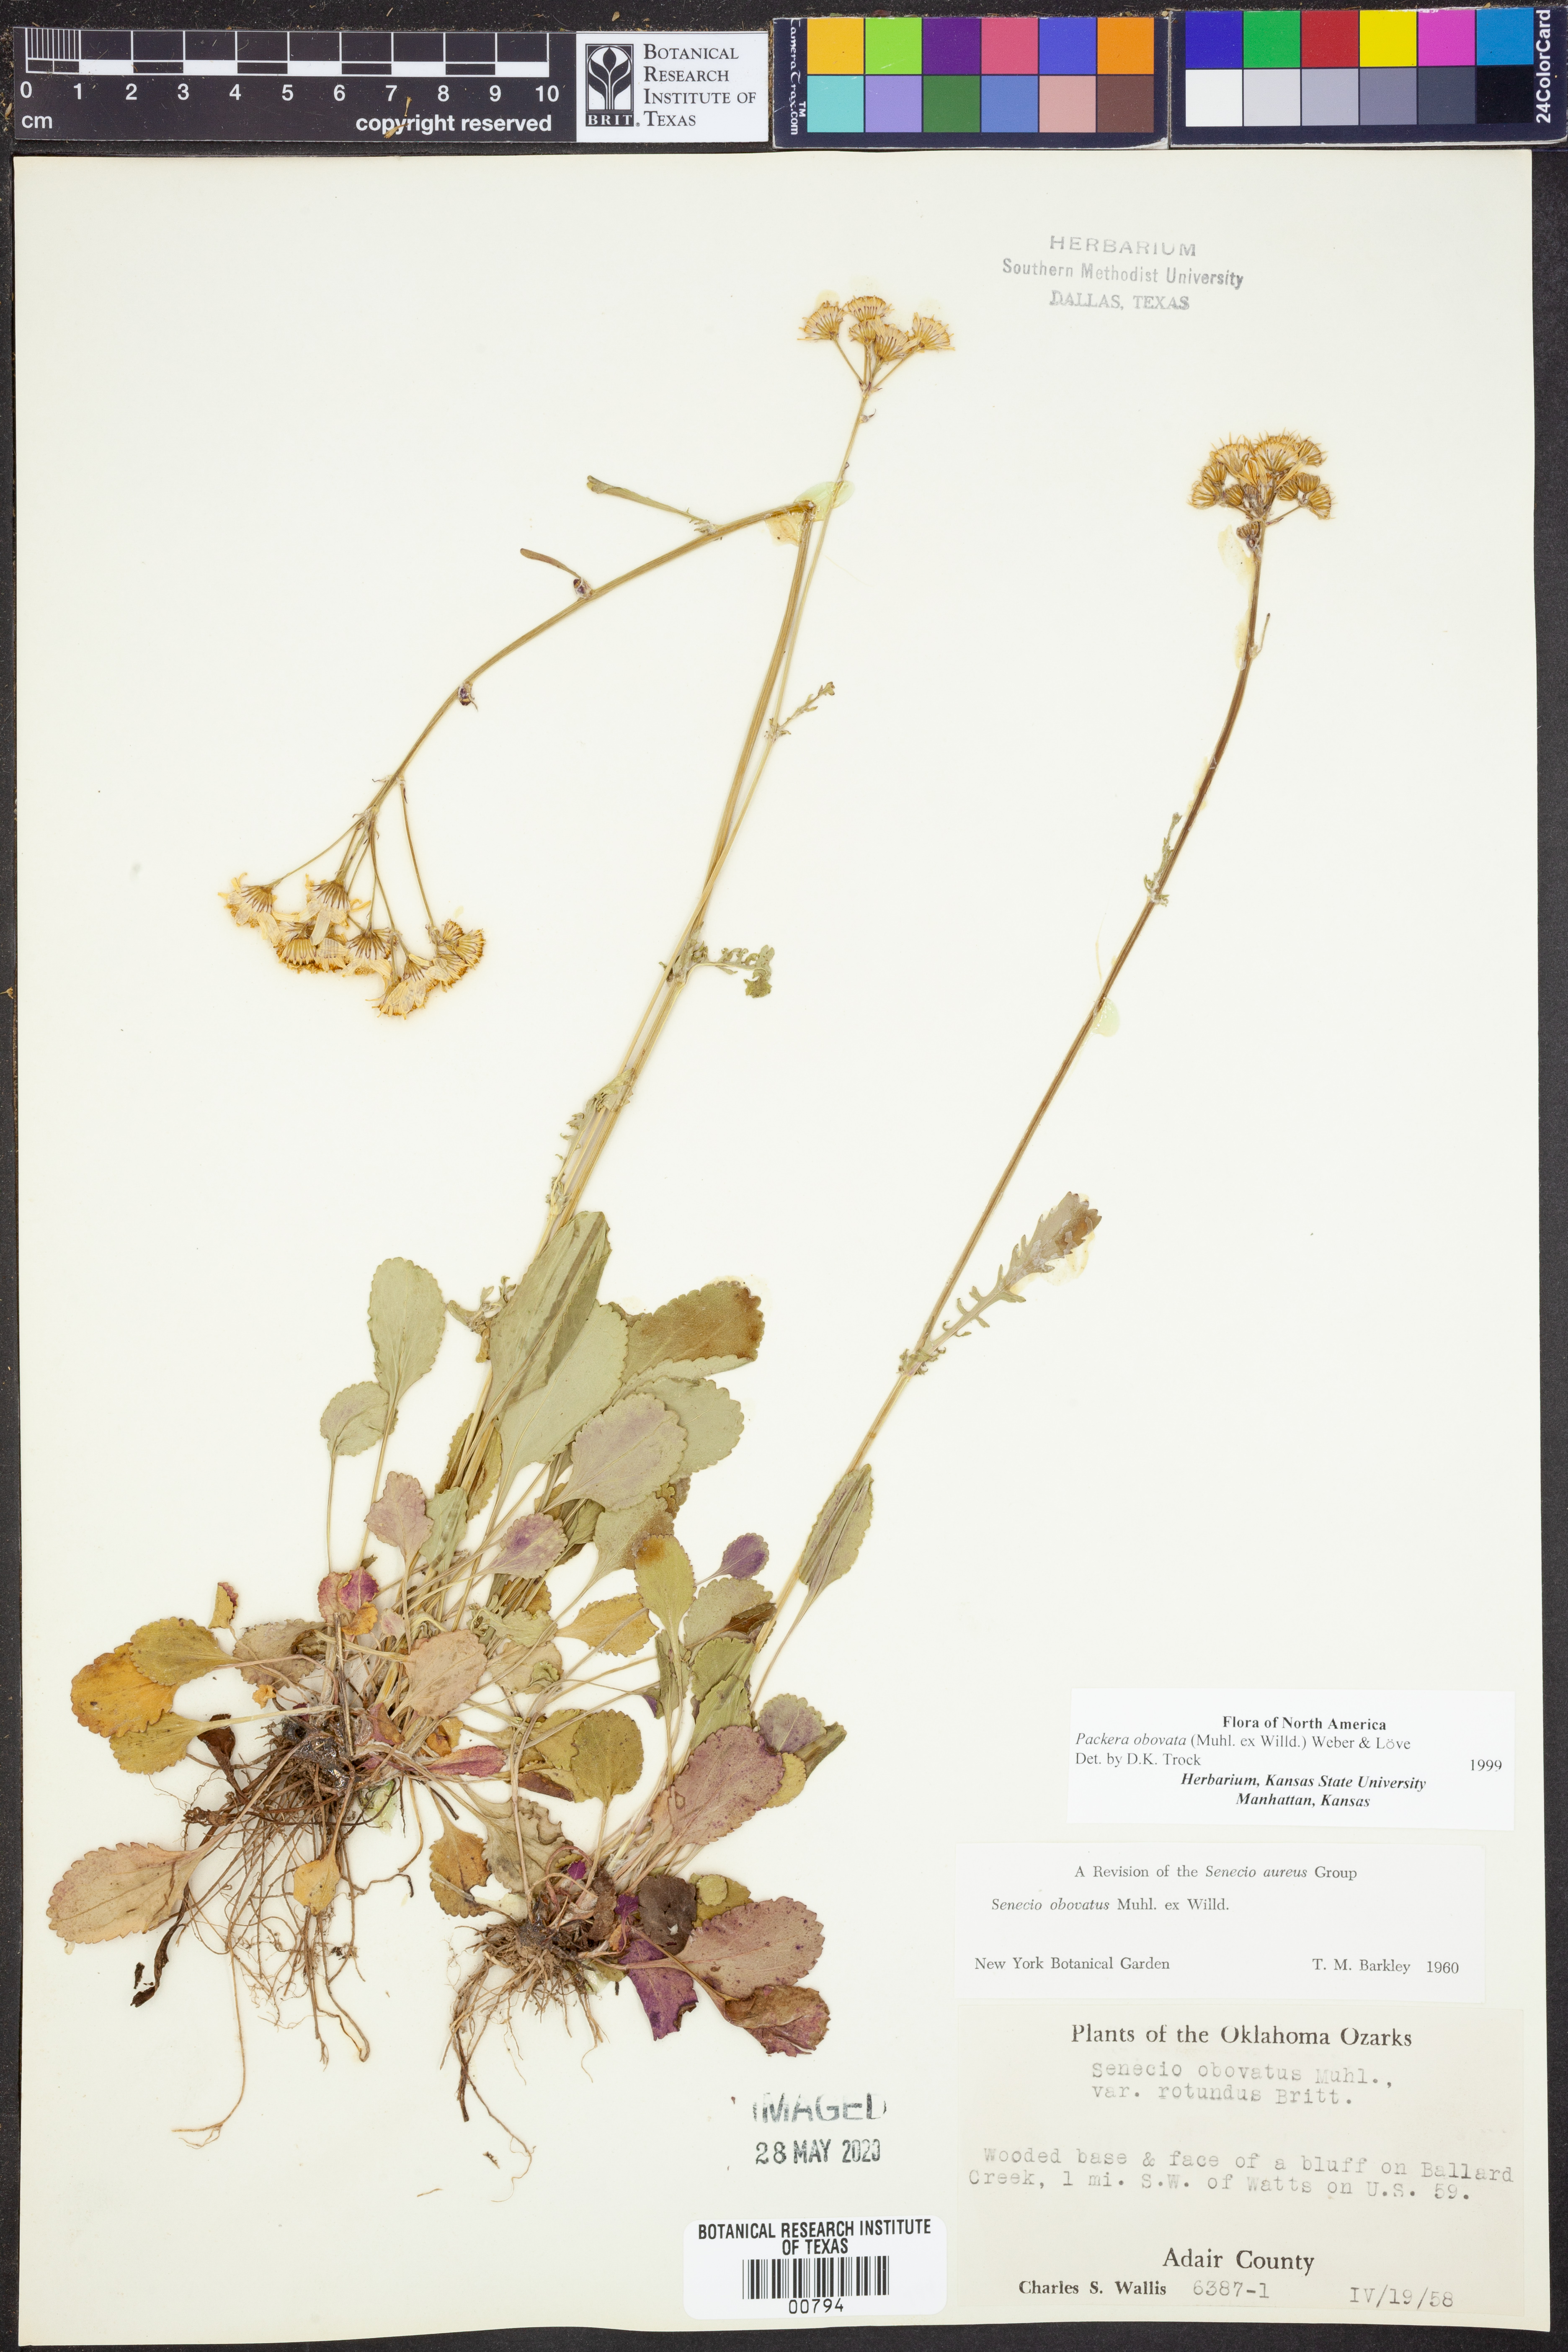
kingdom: Plantae
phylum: Tracheophyta
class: Magnoliopsida
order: Asterales
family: Asteraceae
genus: Packera
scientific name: Packera obovata
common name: Round-leaf ragwort
